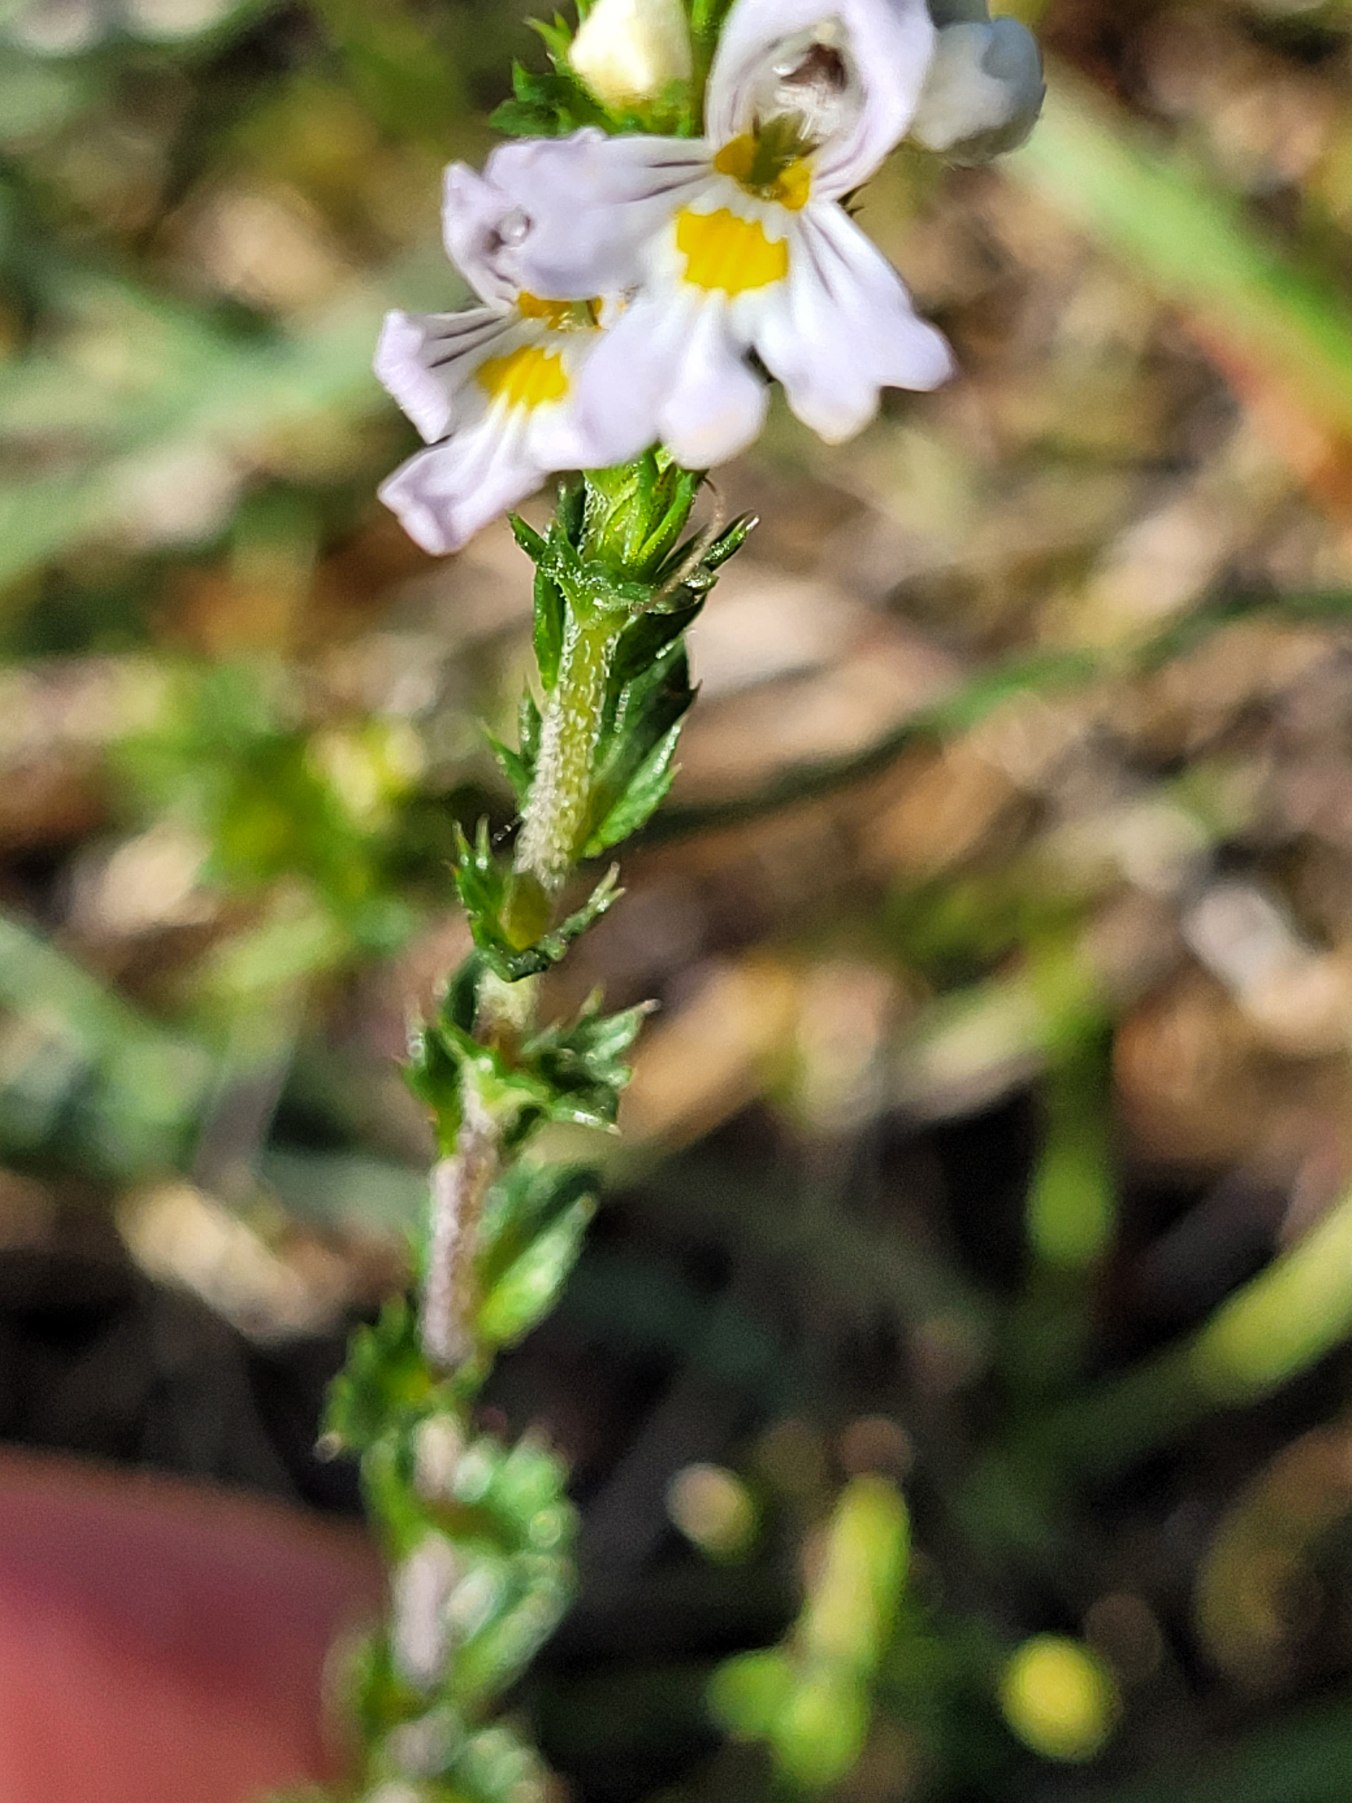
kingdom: Plantae
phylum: Tracheophyta
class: Magnoliopsida
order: Lamiales
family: Orobanchaceae
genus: Euphrasia
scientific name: Euphrasia vernalis
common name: Kirtel-øjentrøst
